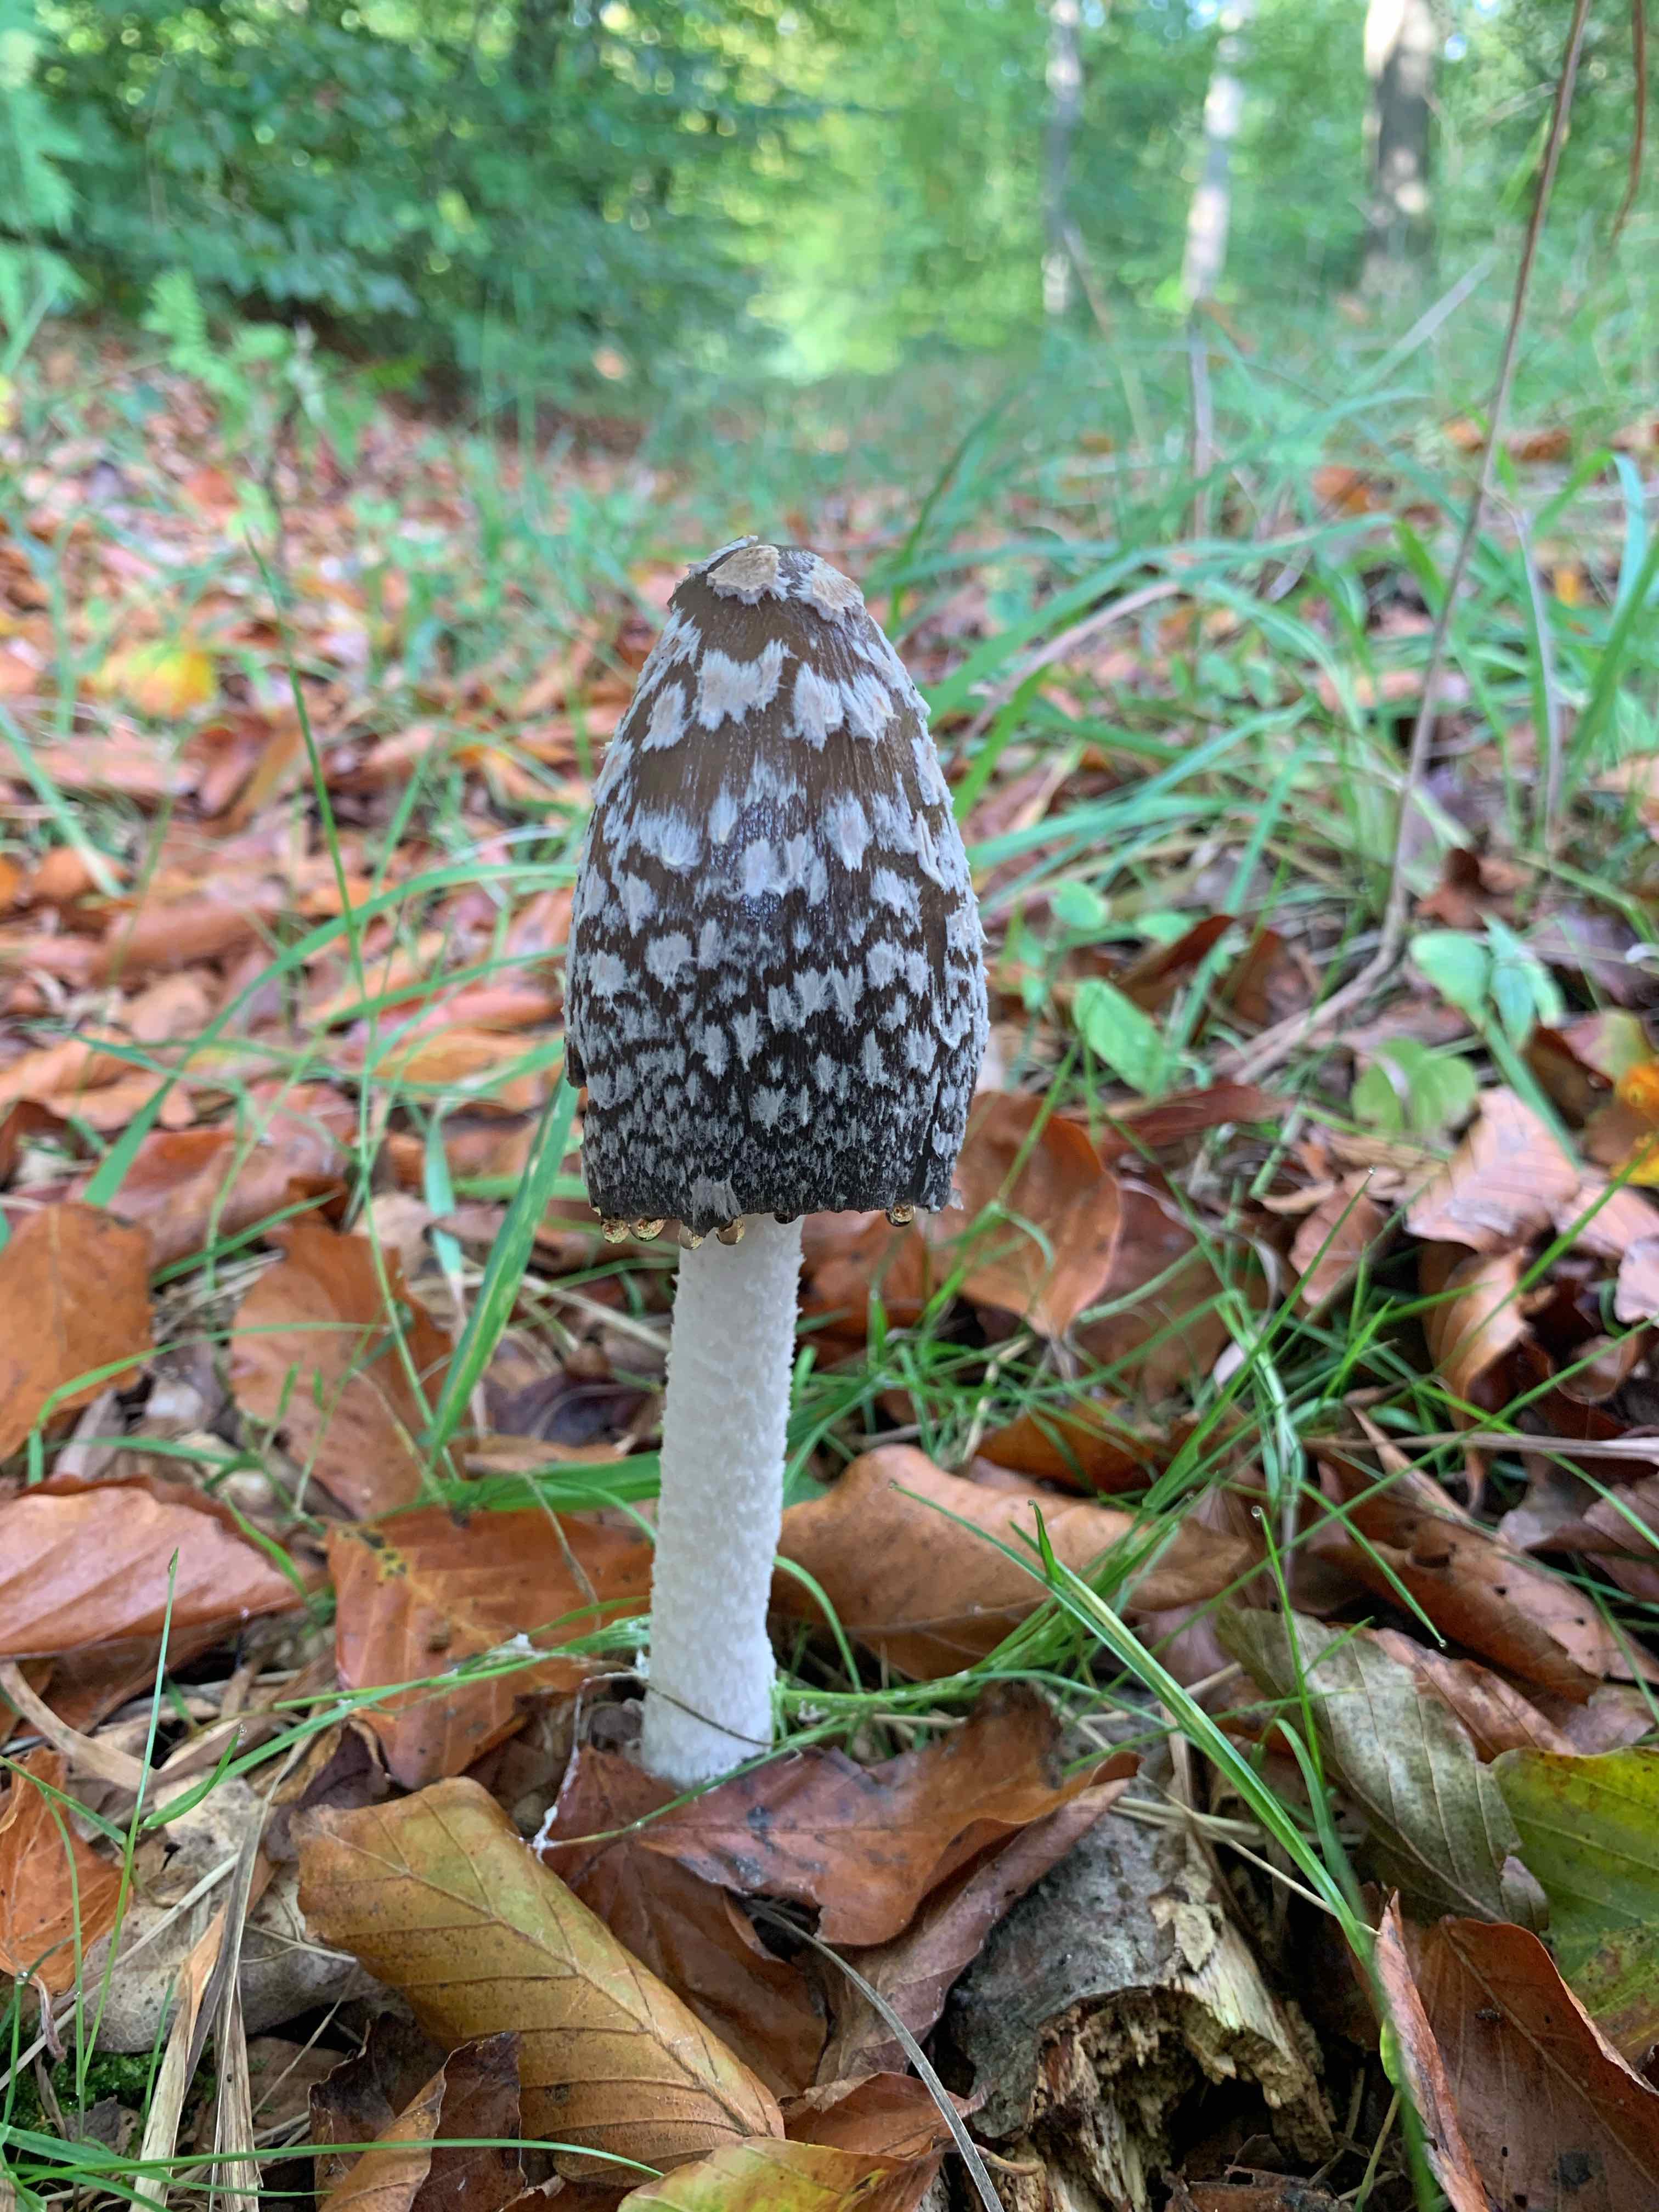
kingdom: Fungi
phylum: Basidiomycota
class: Agaricomycetes
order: Agaricales
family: Psathyrellaceae
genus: Coprinopsis
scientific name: Coprinopsis picacea
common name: skade-blækhat
